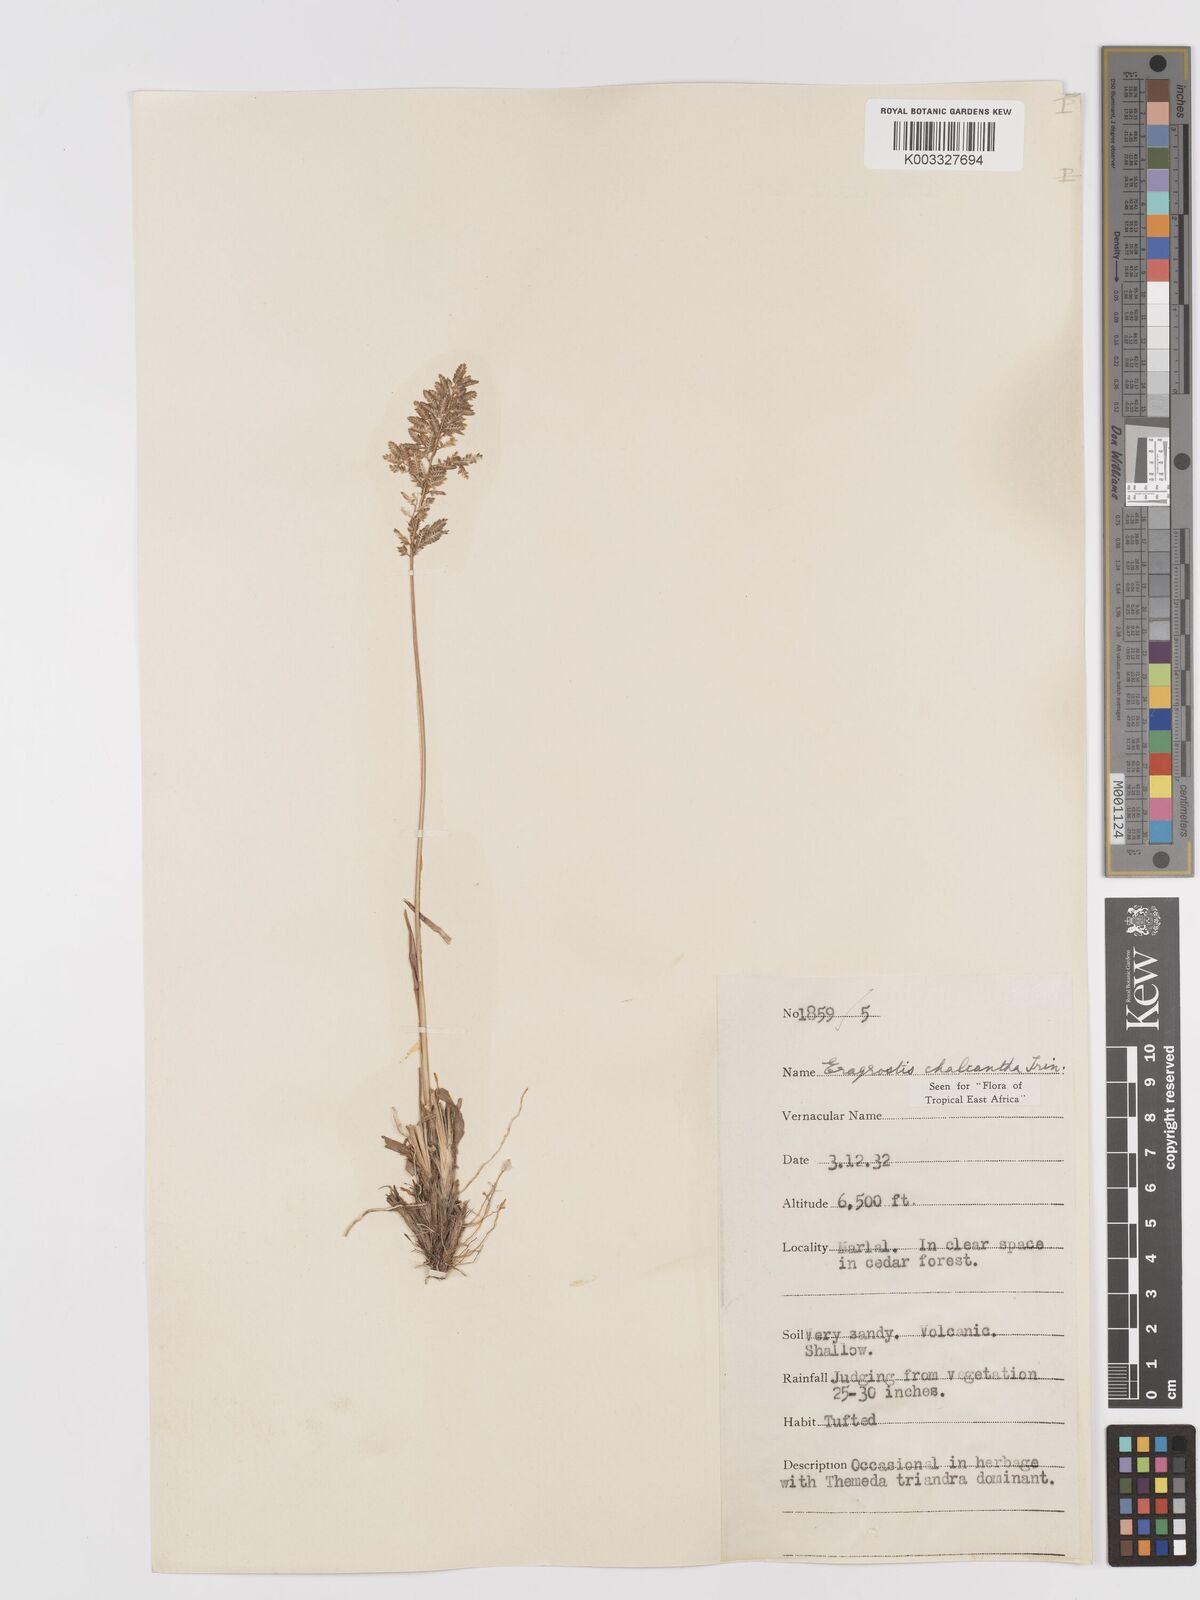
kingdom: Plantae
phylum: Tracheophyta
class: Liliopsida
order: Poales
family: Poaceae
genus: Eragrostis
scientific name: Eragrostis racemosa
